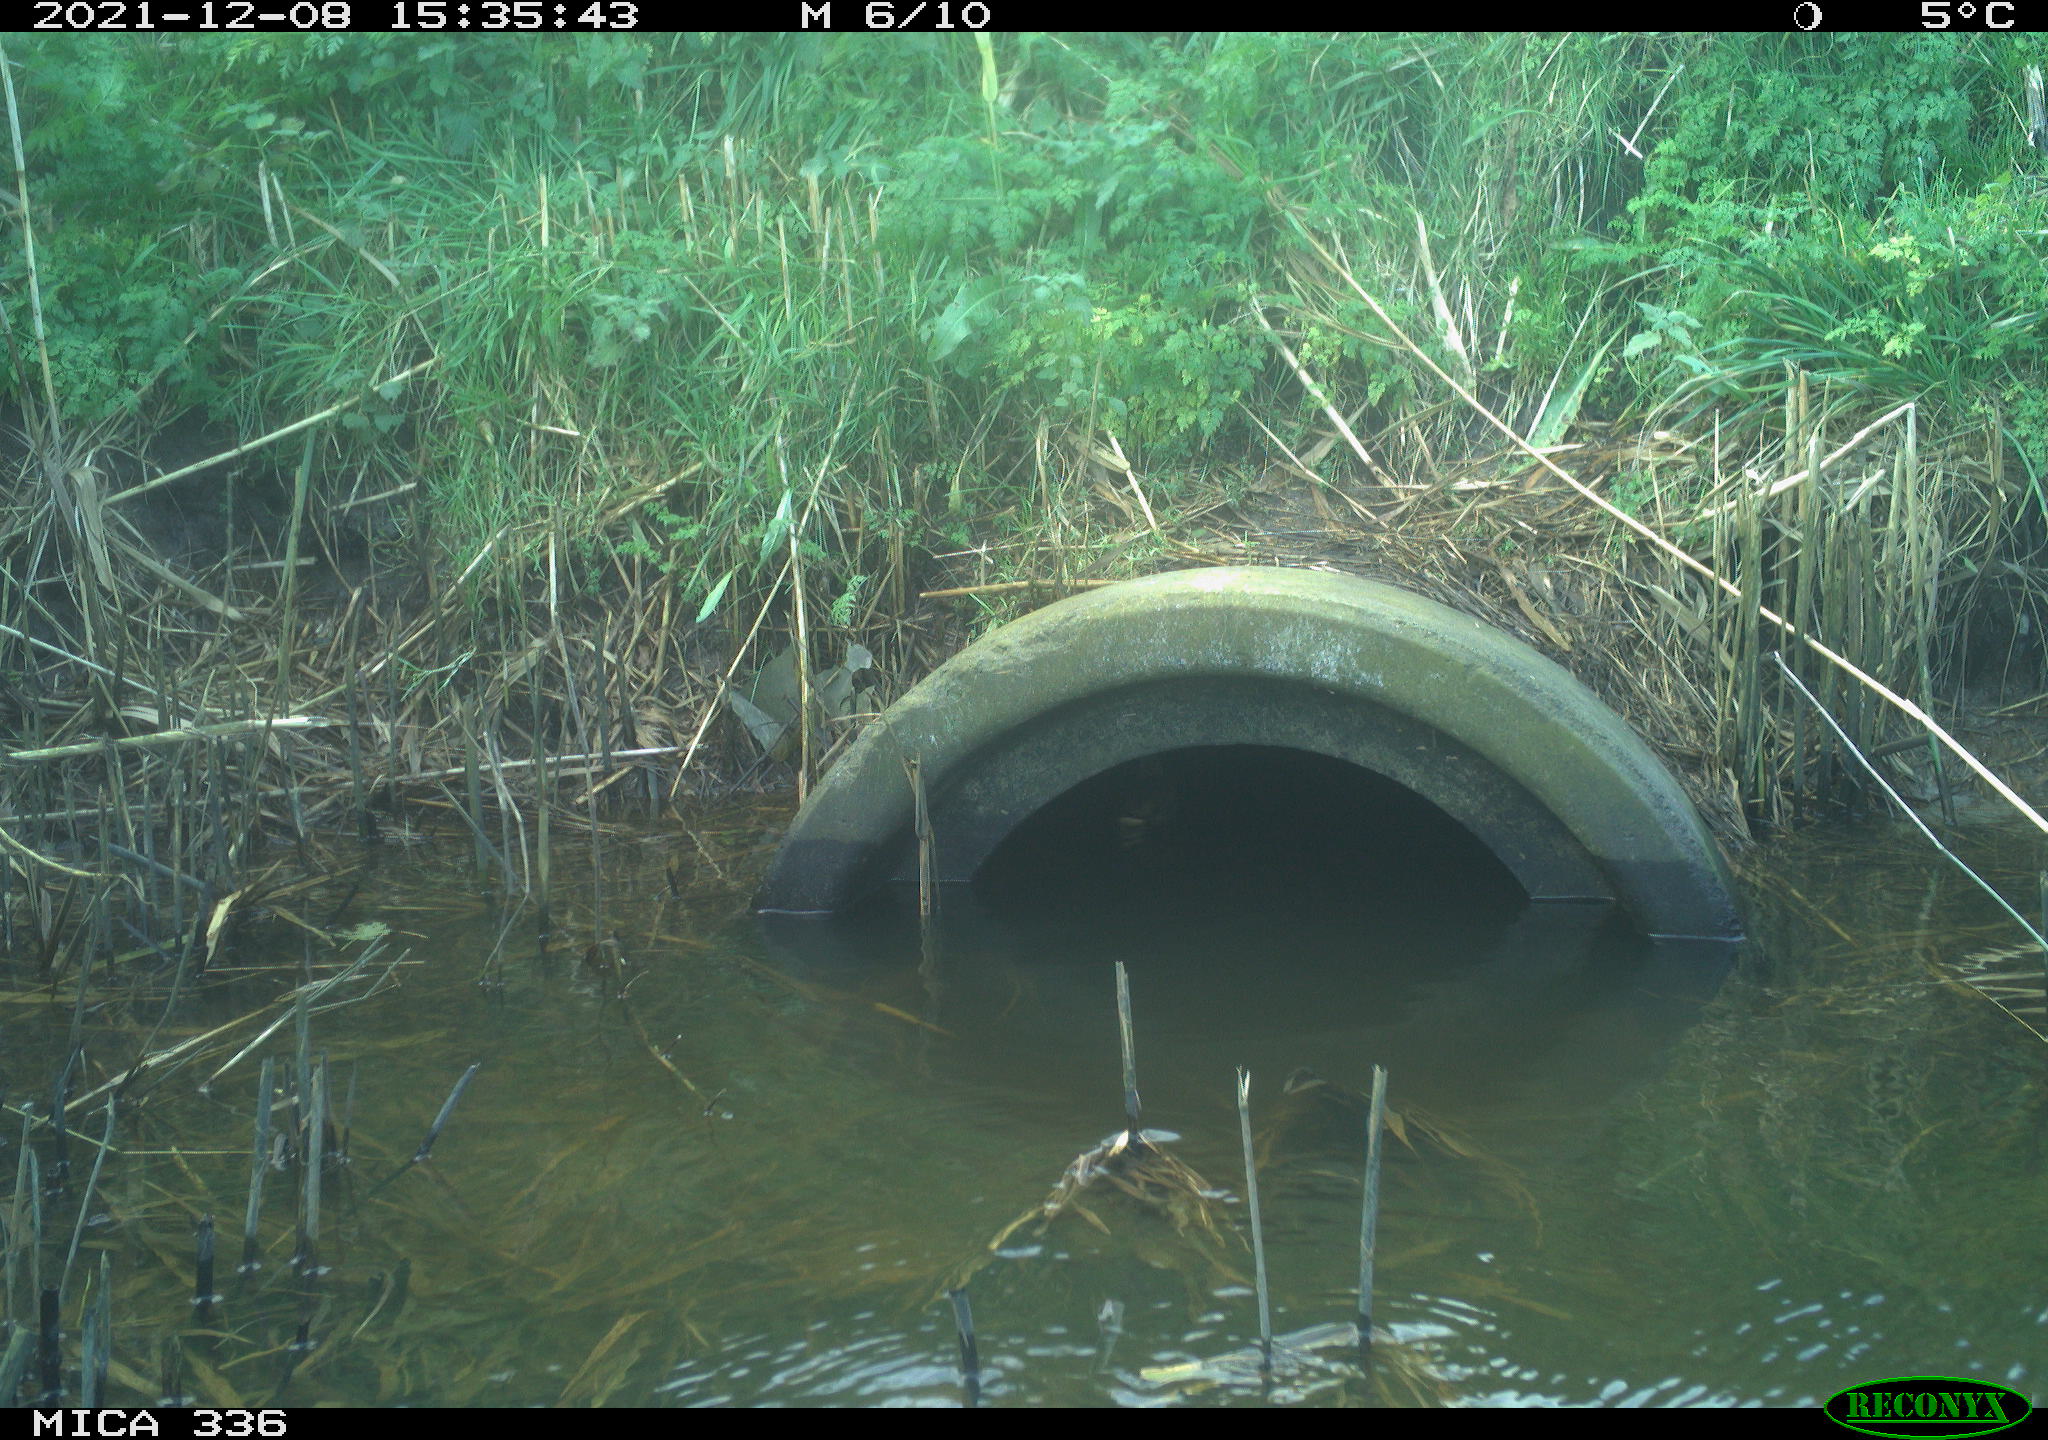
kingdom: Animalia
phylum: Chordata
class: Aves
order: Gruiformes
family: Rallidae
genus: Gallinula
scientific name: Gallinula chloropus
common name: Common moorhen
